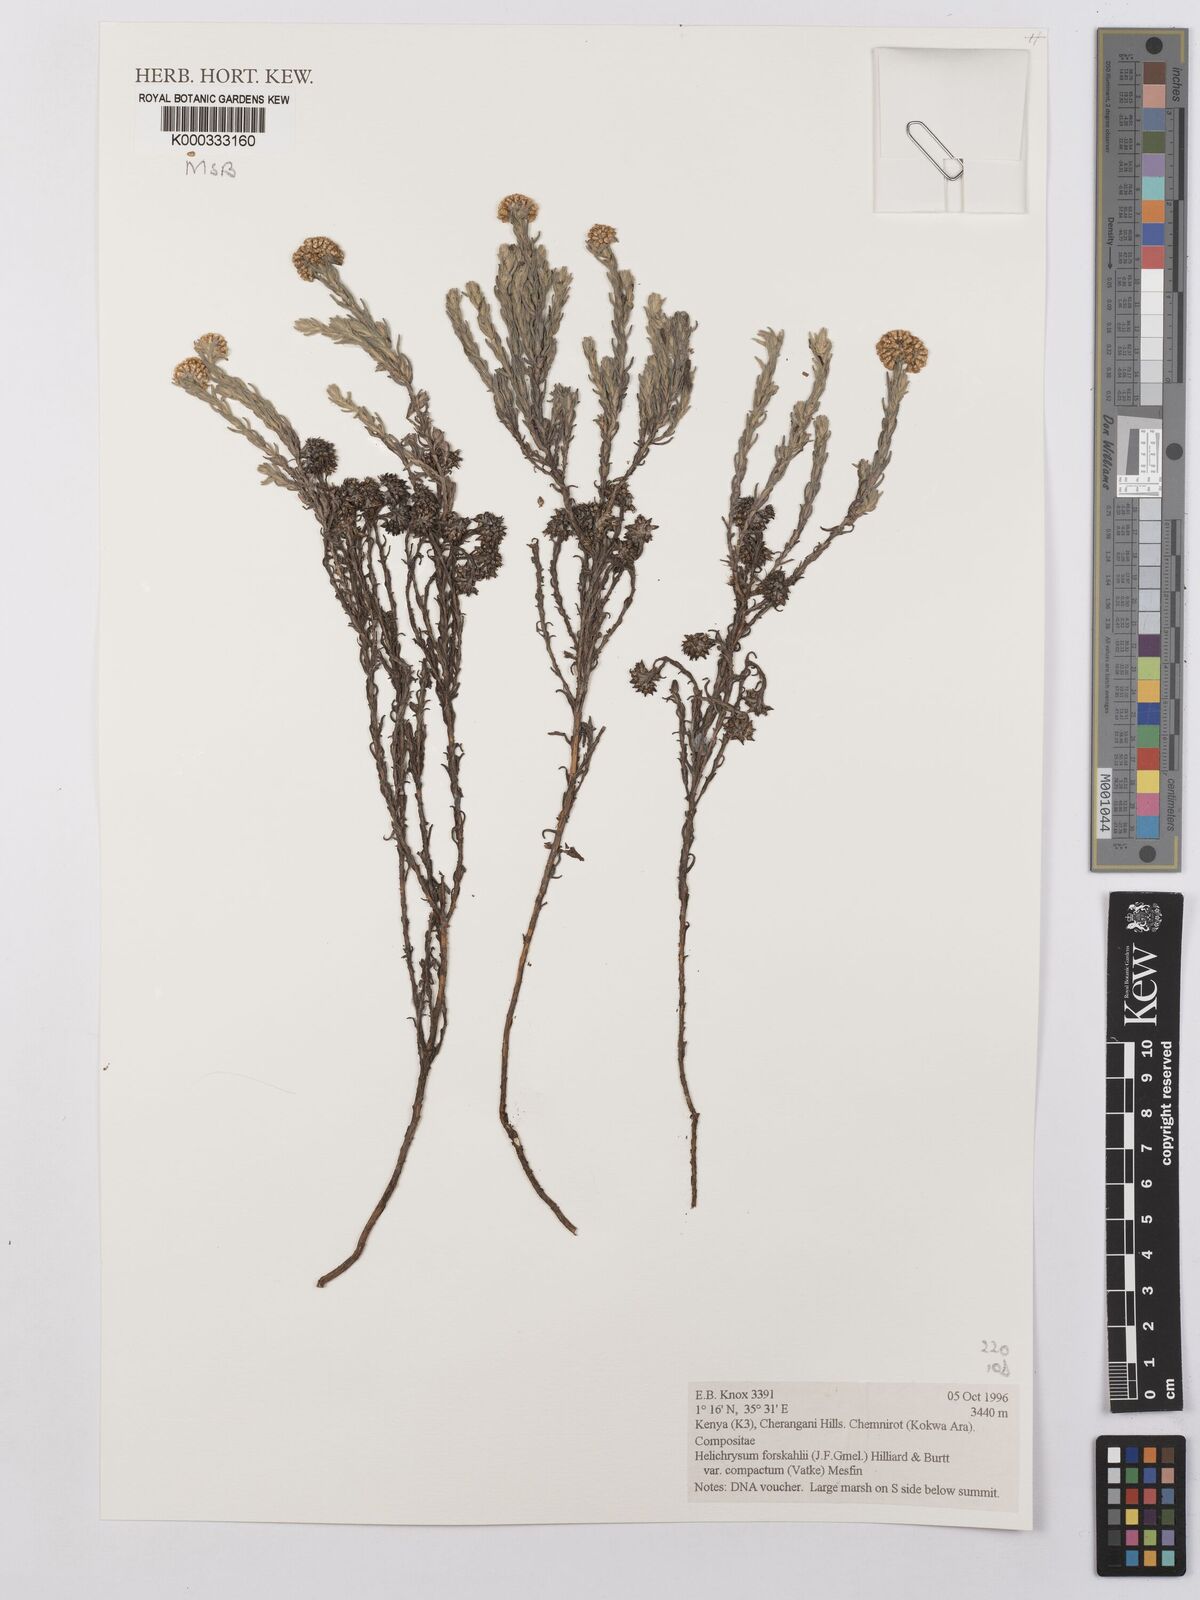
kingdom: Plantae
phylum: Tracheophyta
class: Magnoliopsida
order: Asterales
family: Asteraceae
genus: Helichrysum
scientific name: Helichrysum forskahlii
